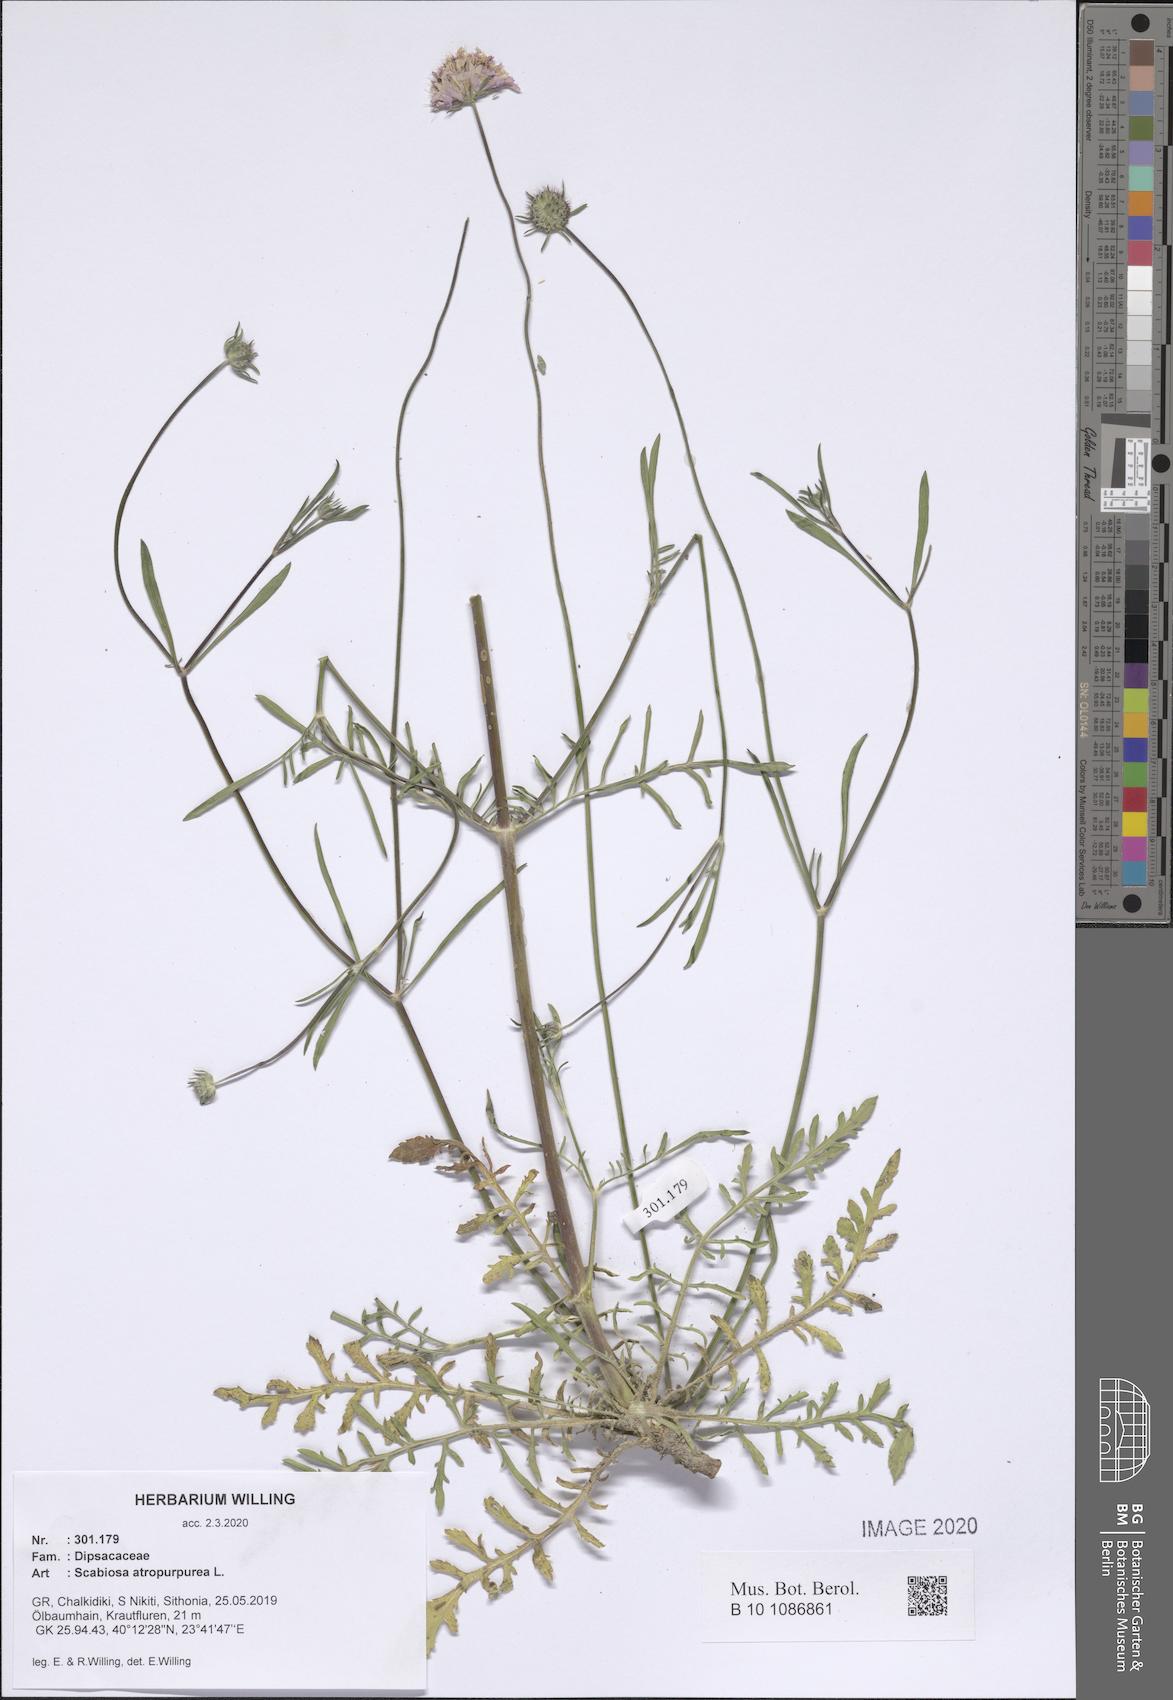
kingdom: Plantae
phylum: Tracheophyta
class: Magnoliopsida
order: Dipsacales
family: Caprifoliaceae
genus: Sixalix
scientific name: Sixalix atropurpurea
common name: Sweet scabious
